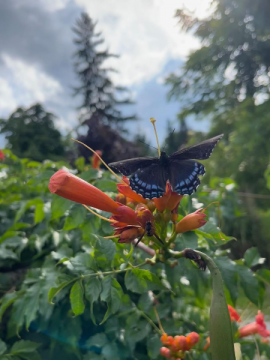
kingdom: Animalia
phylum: Arthropoda
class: Insecta
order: Lepidoptera
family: Nymphalidae
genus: Limenitis
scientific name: Limenitis arthemis
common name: Red-spotted Admiral
